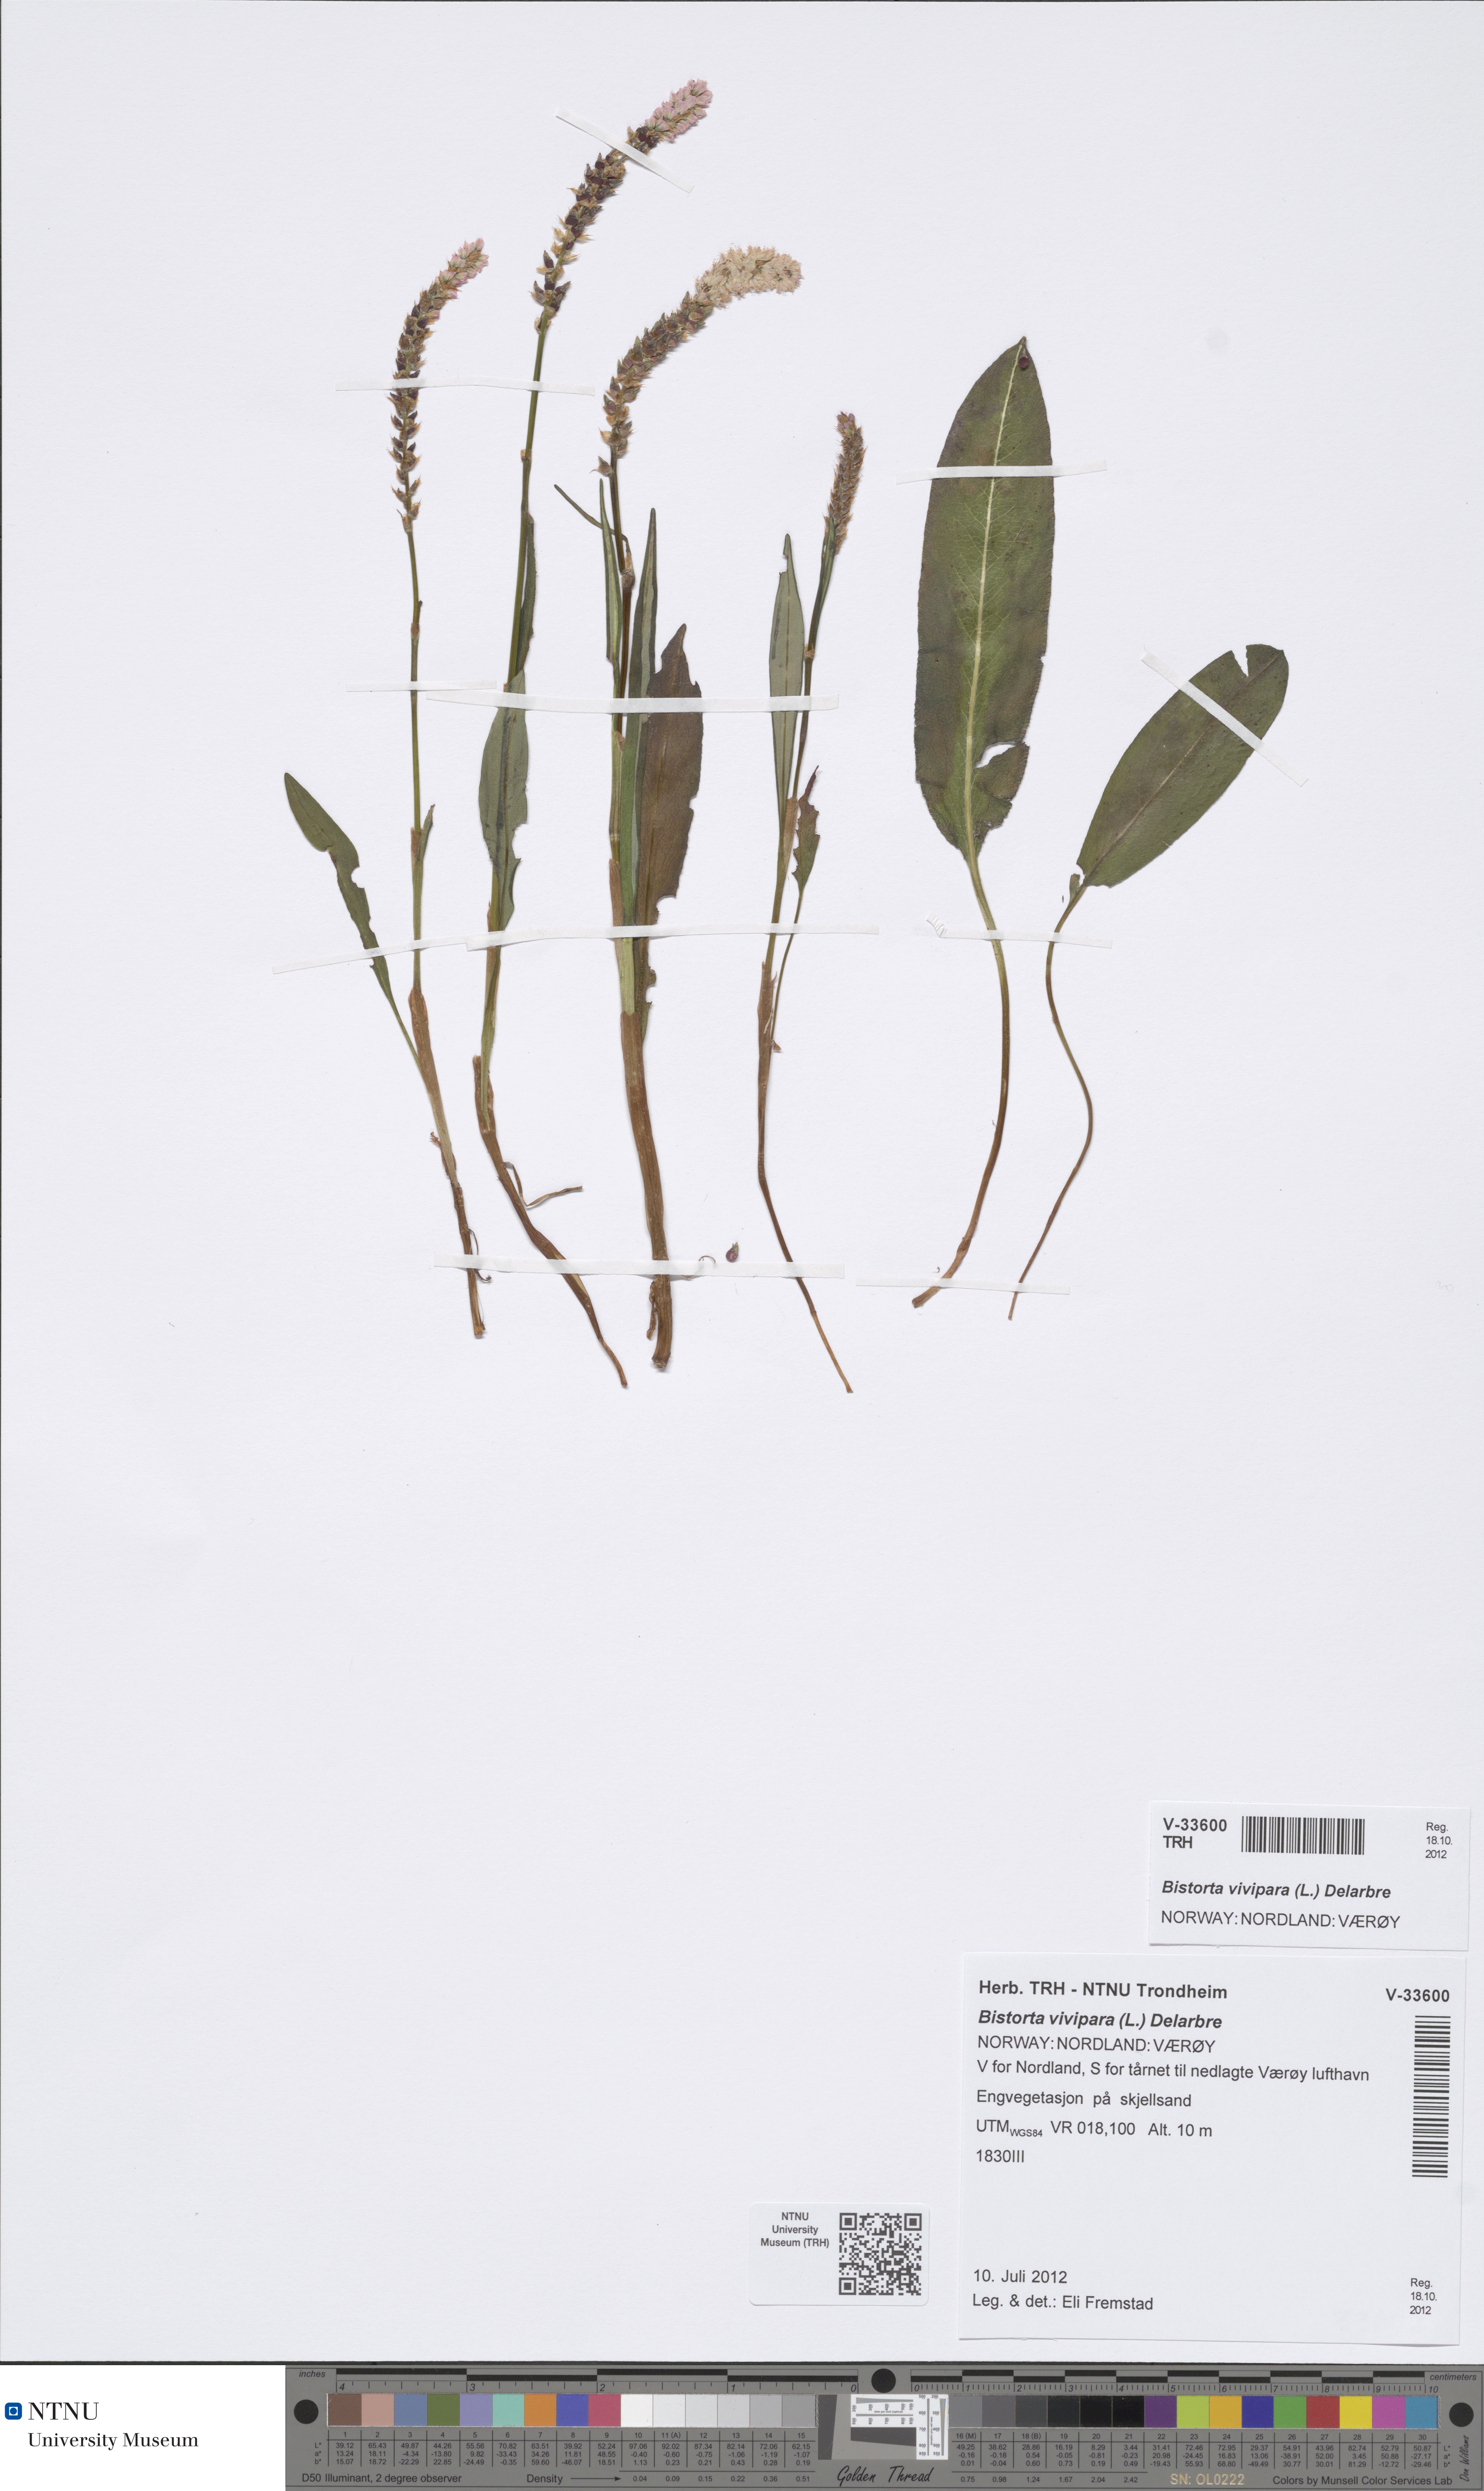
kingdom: Plantae
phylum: Tracheophyta
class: Magnoliopsida
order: Caryophyllales
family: Polygonaceae
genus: Bistorta
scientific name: Bistorta vivipara
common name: Alpine bistort
